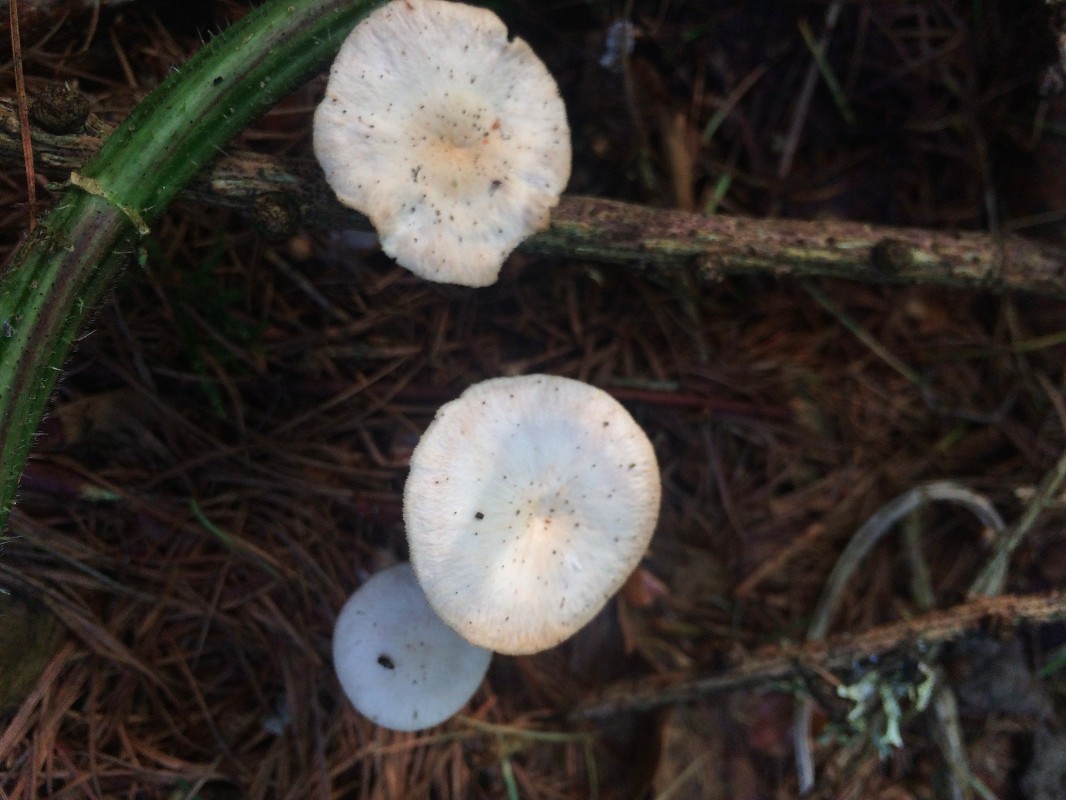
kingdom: Fungi
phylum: Basidiomycota
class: Agaricomycetes
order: Agaricales
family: Omphalotaceae
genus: Collybiopsis
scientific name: Collybiopsis confluens
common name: knippe-fladhat
